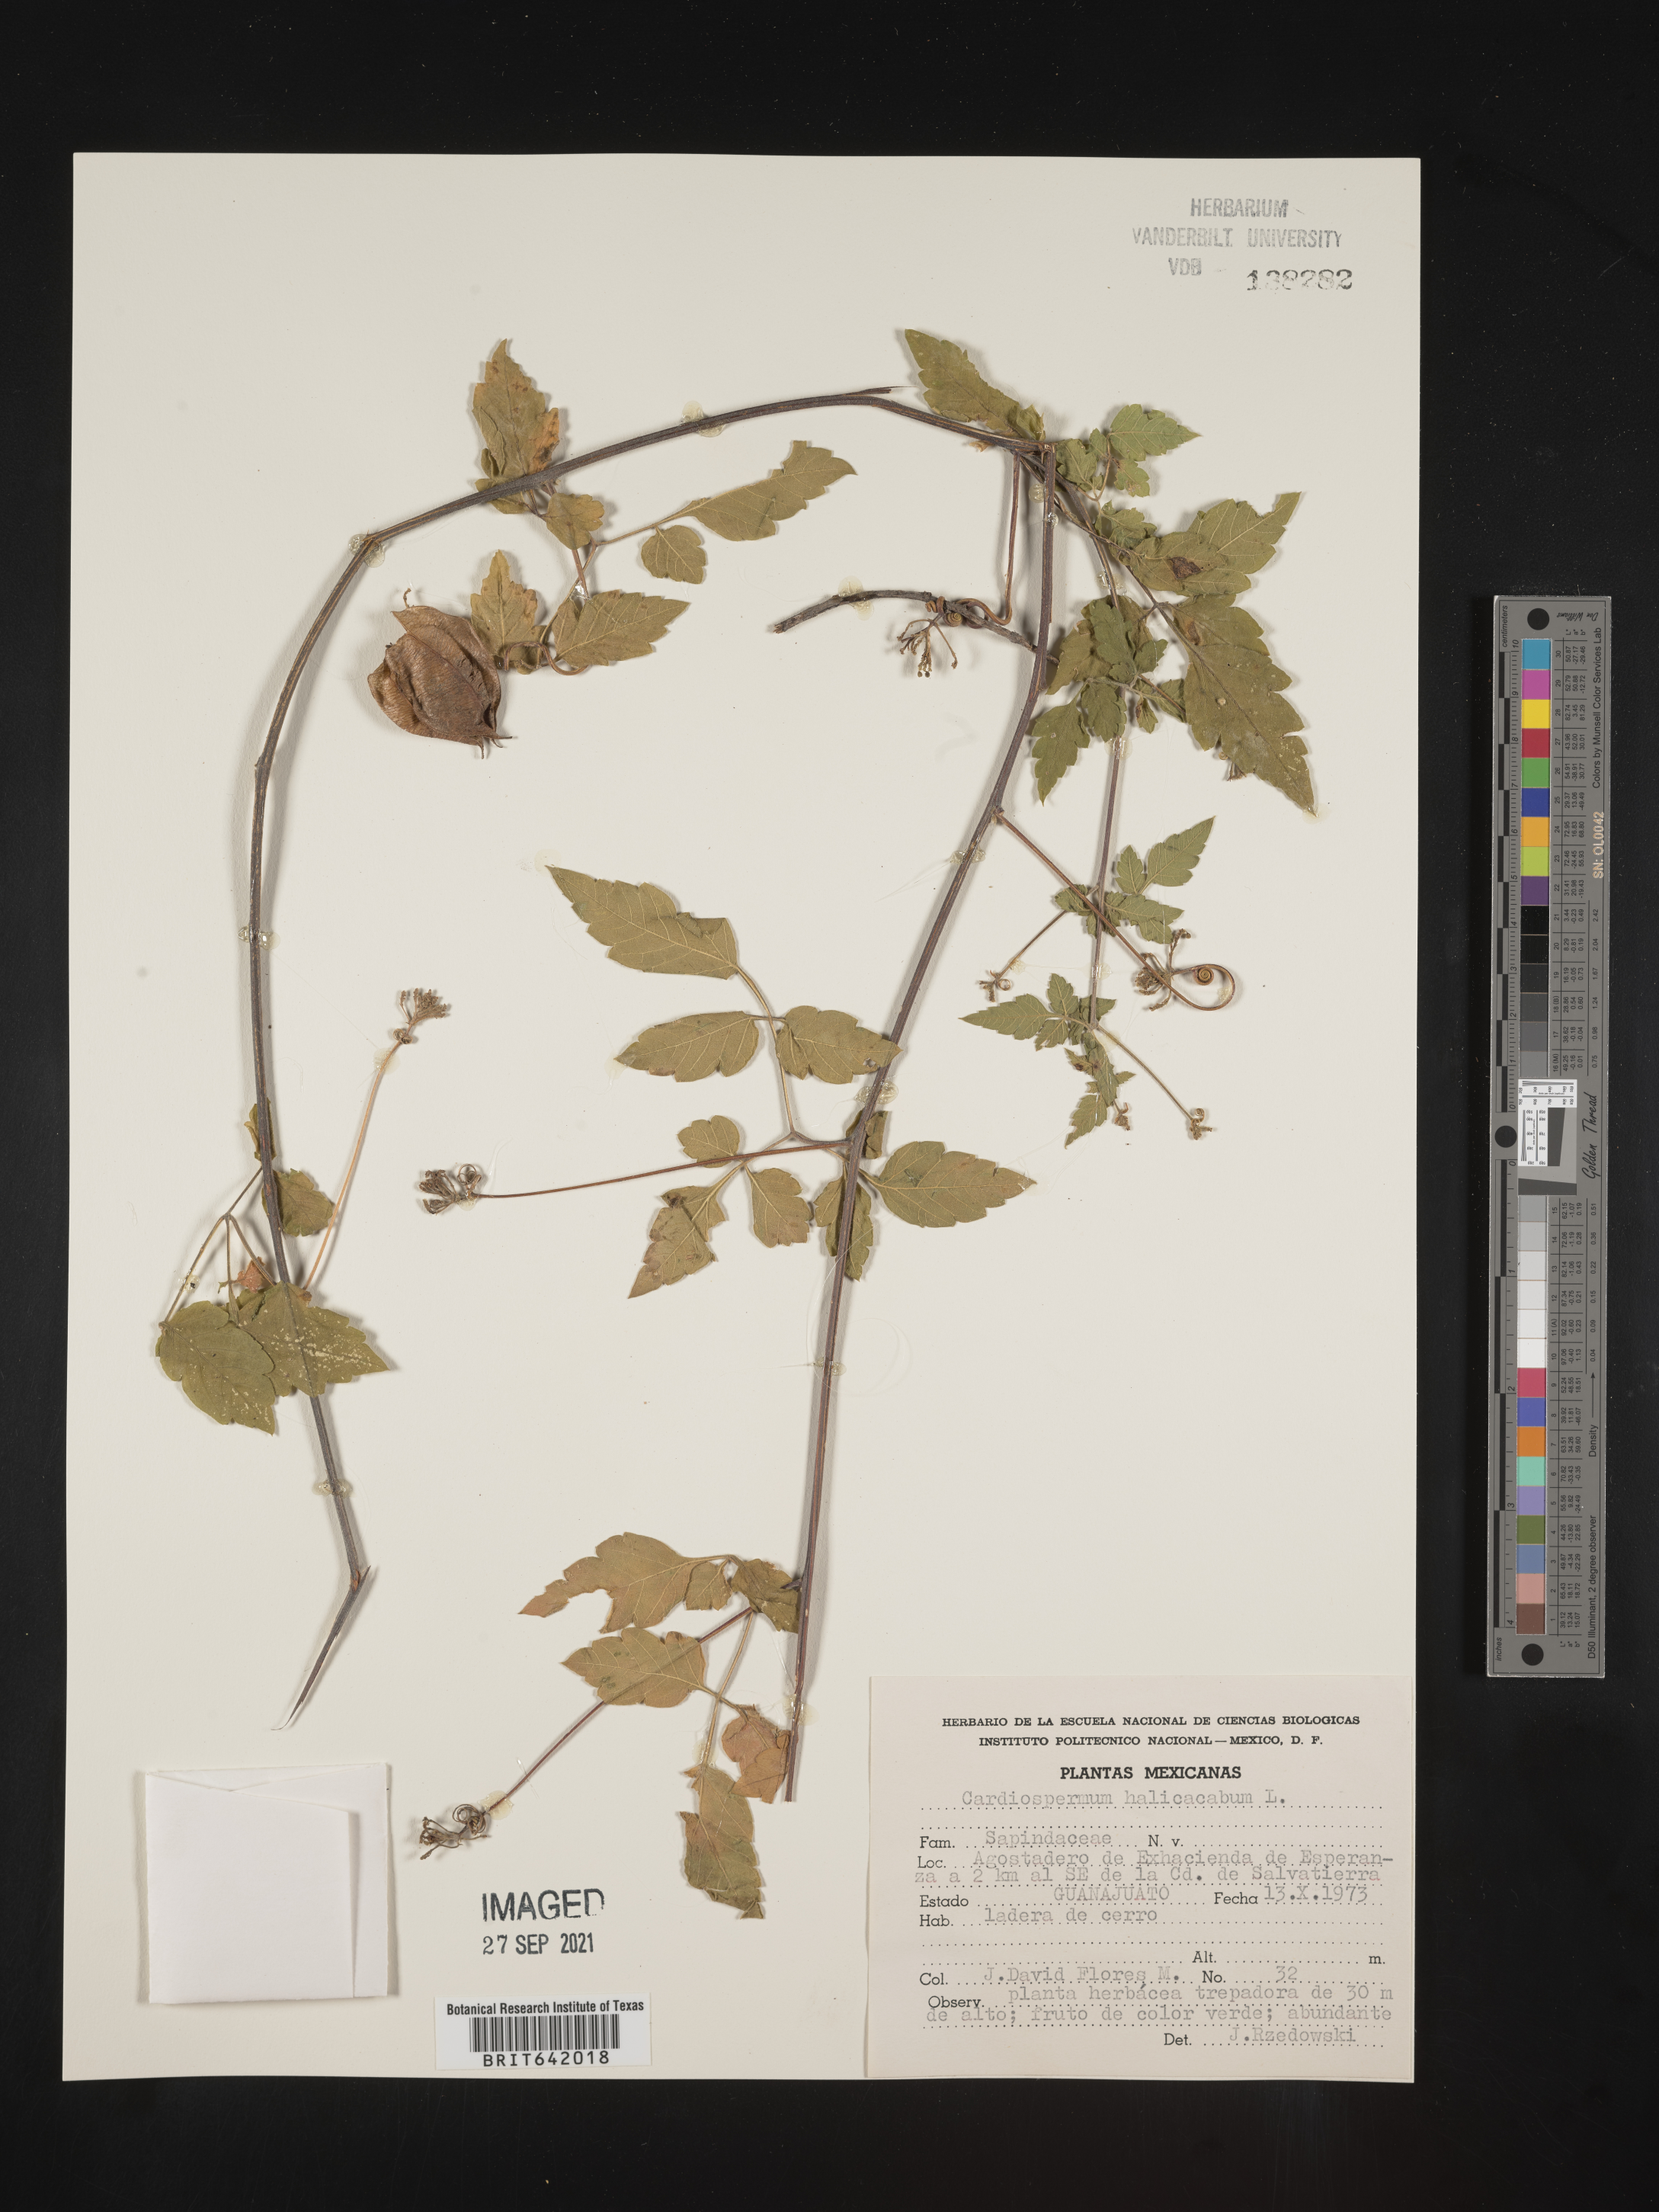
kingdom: Plantae
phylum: Tracheophyta
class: Magnoliopsida
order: Sapindales
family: Sapindaceae
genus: Cardiospermum
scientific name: Cardiospermum
